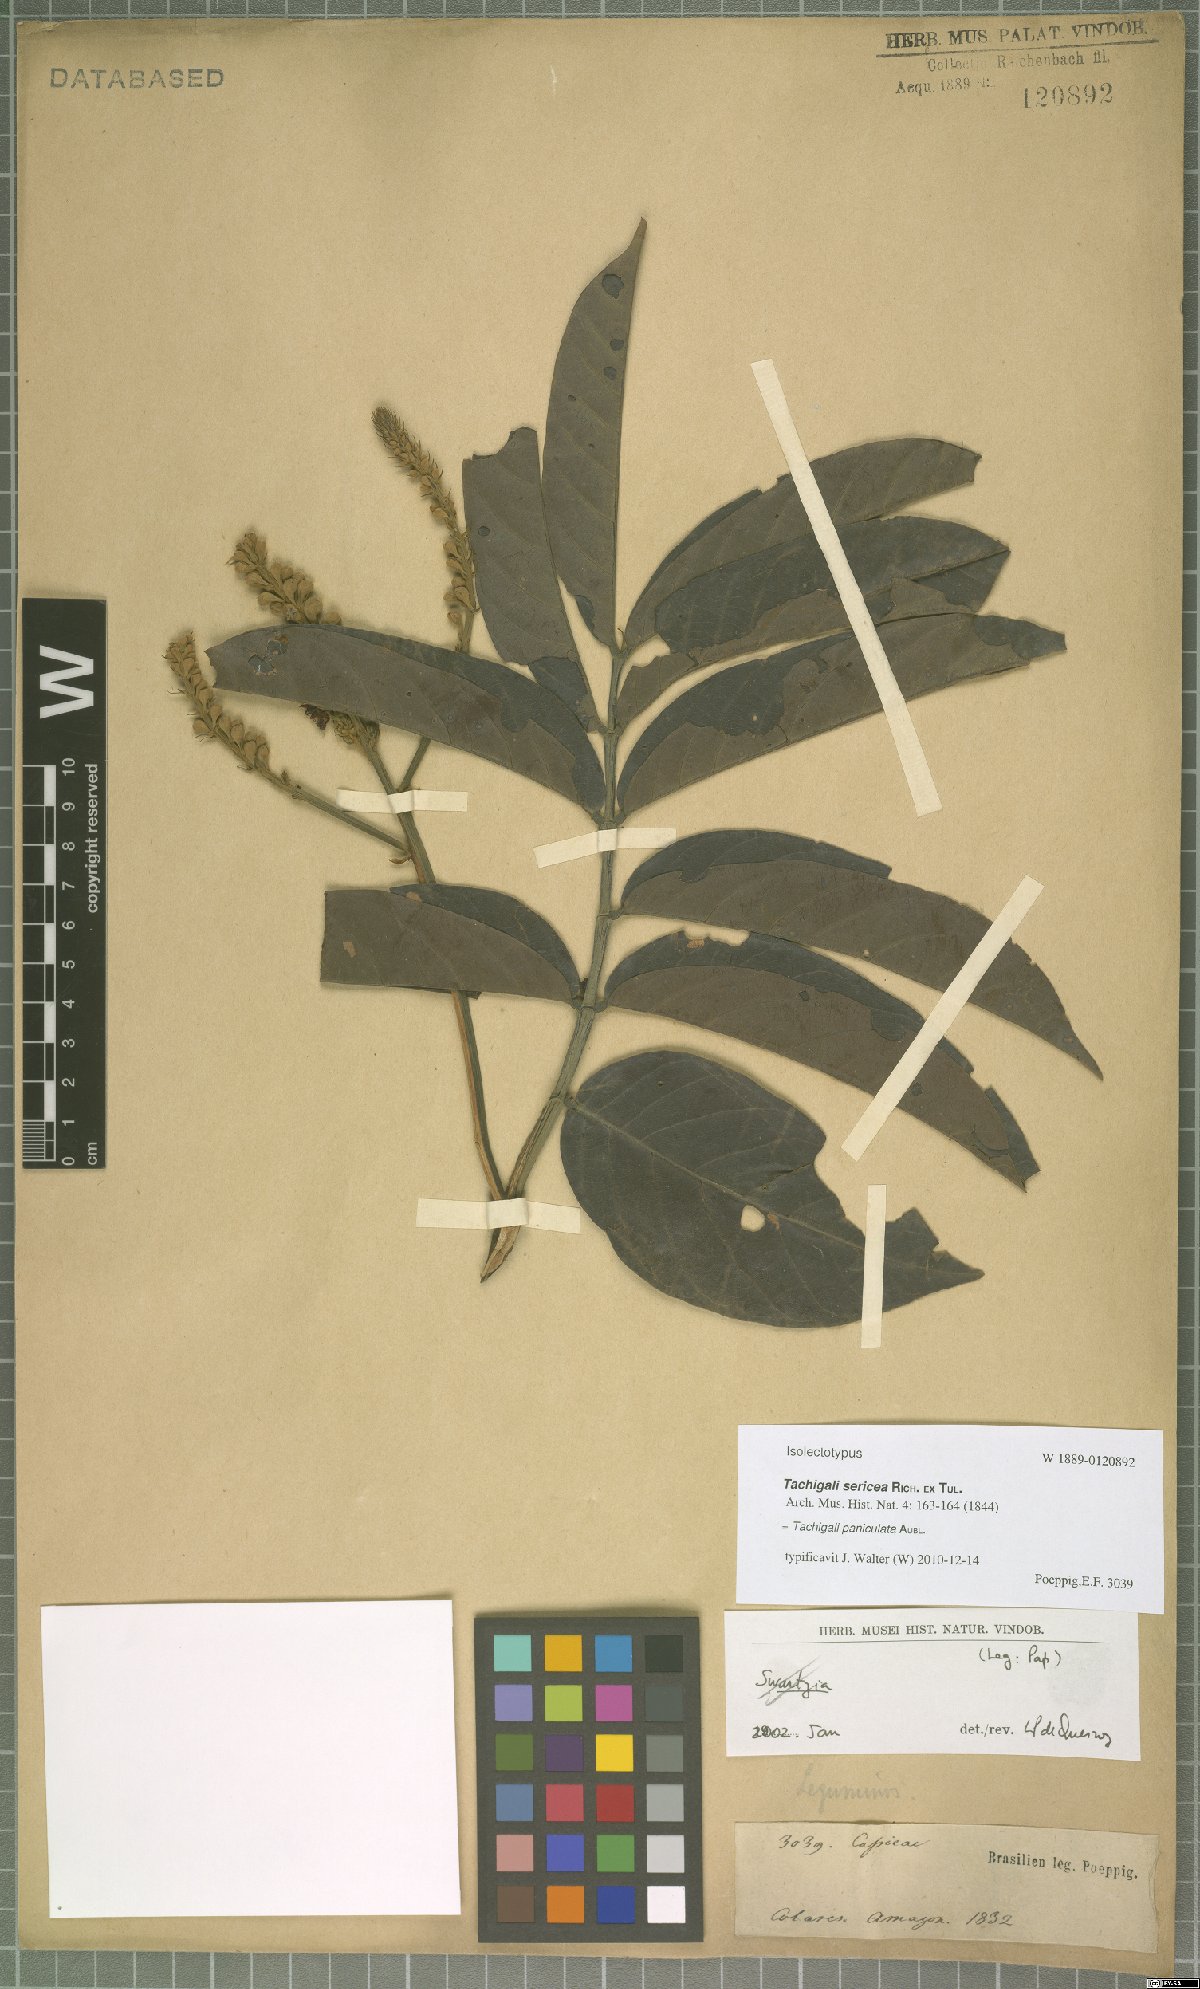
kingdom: Plantae
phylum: Tracheophyta
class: Magnoliopsida
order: Fabales
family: Fabaceae
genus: Tachigali
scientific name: Tachigali paniculata
